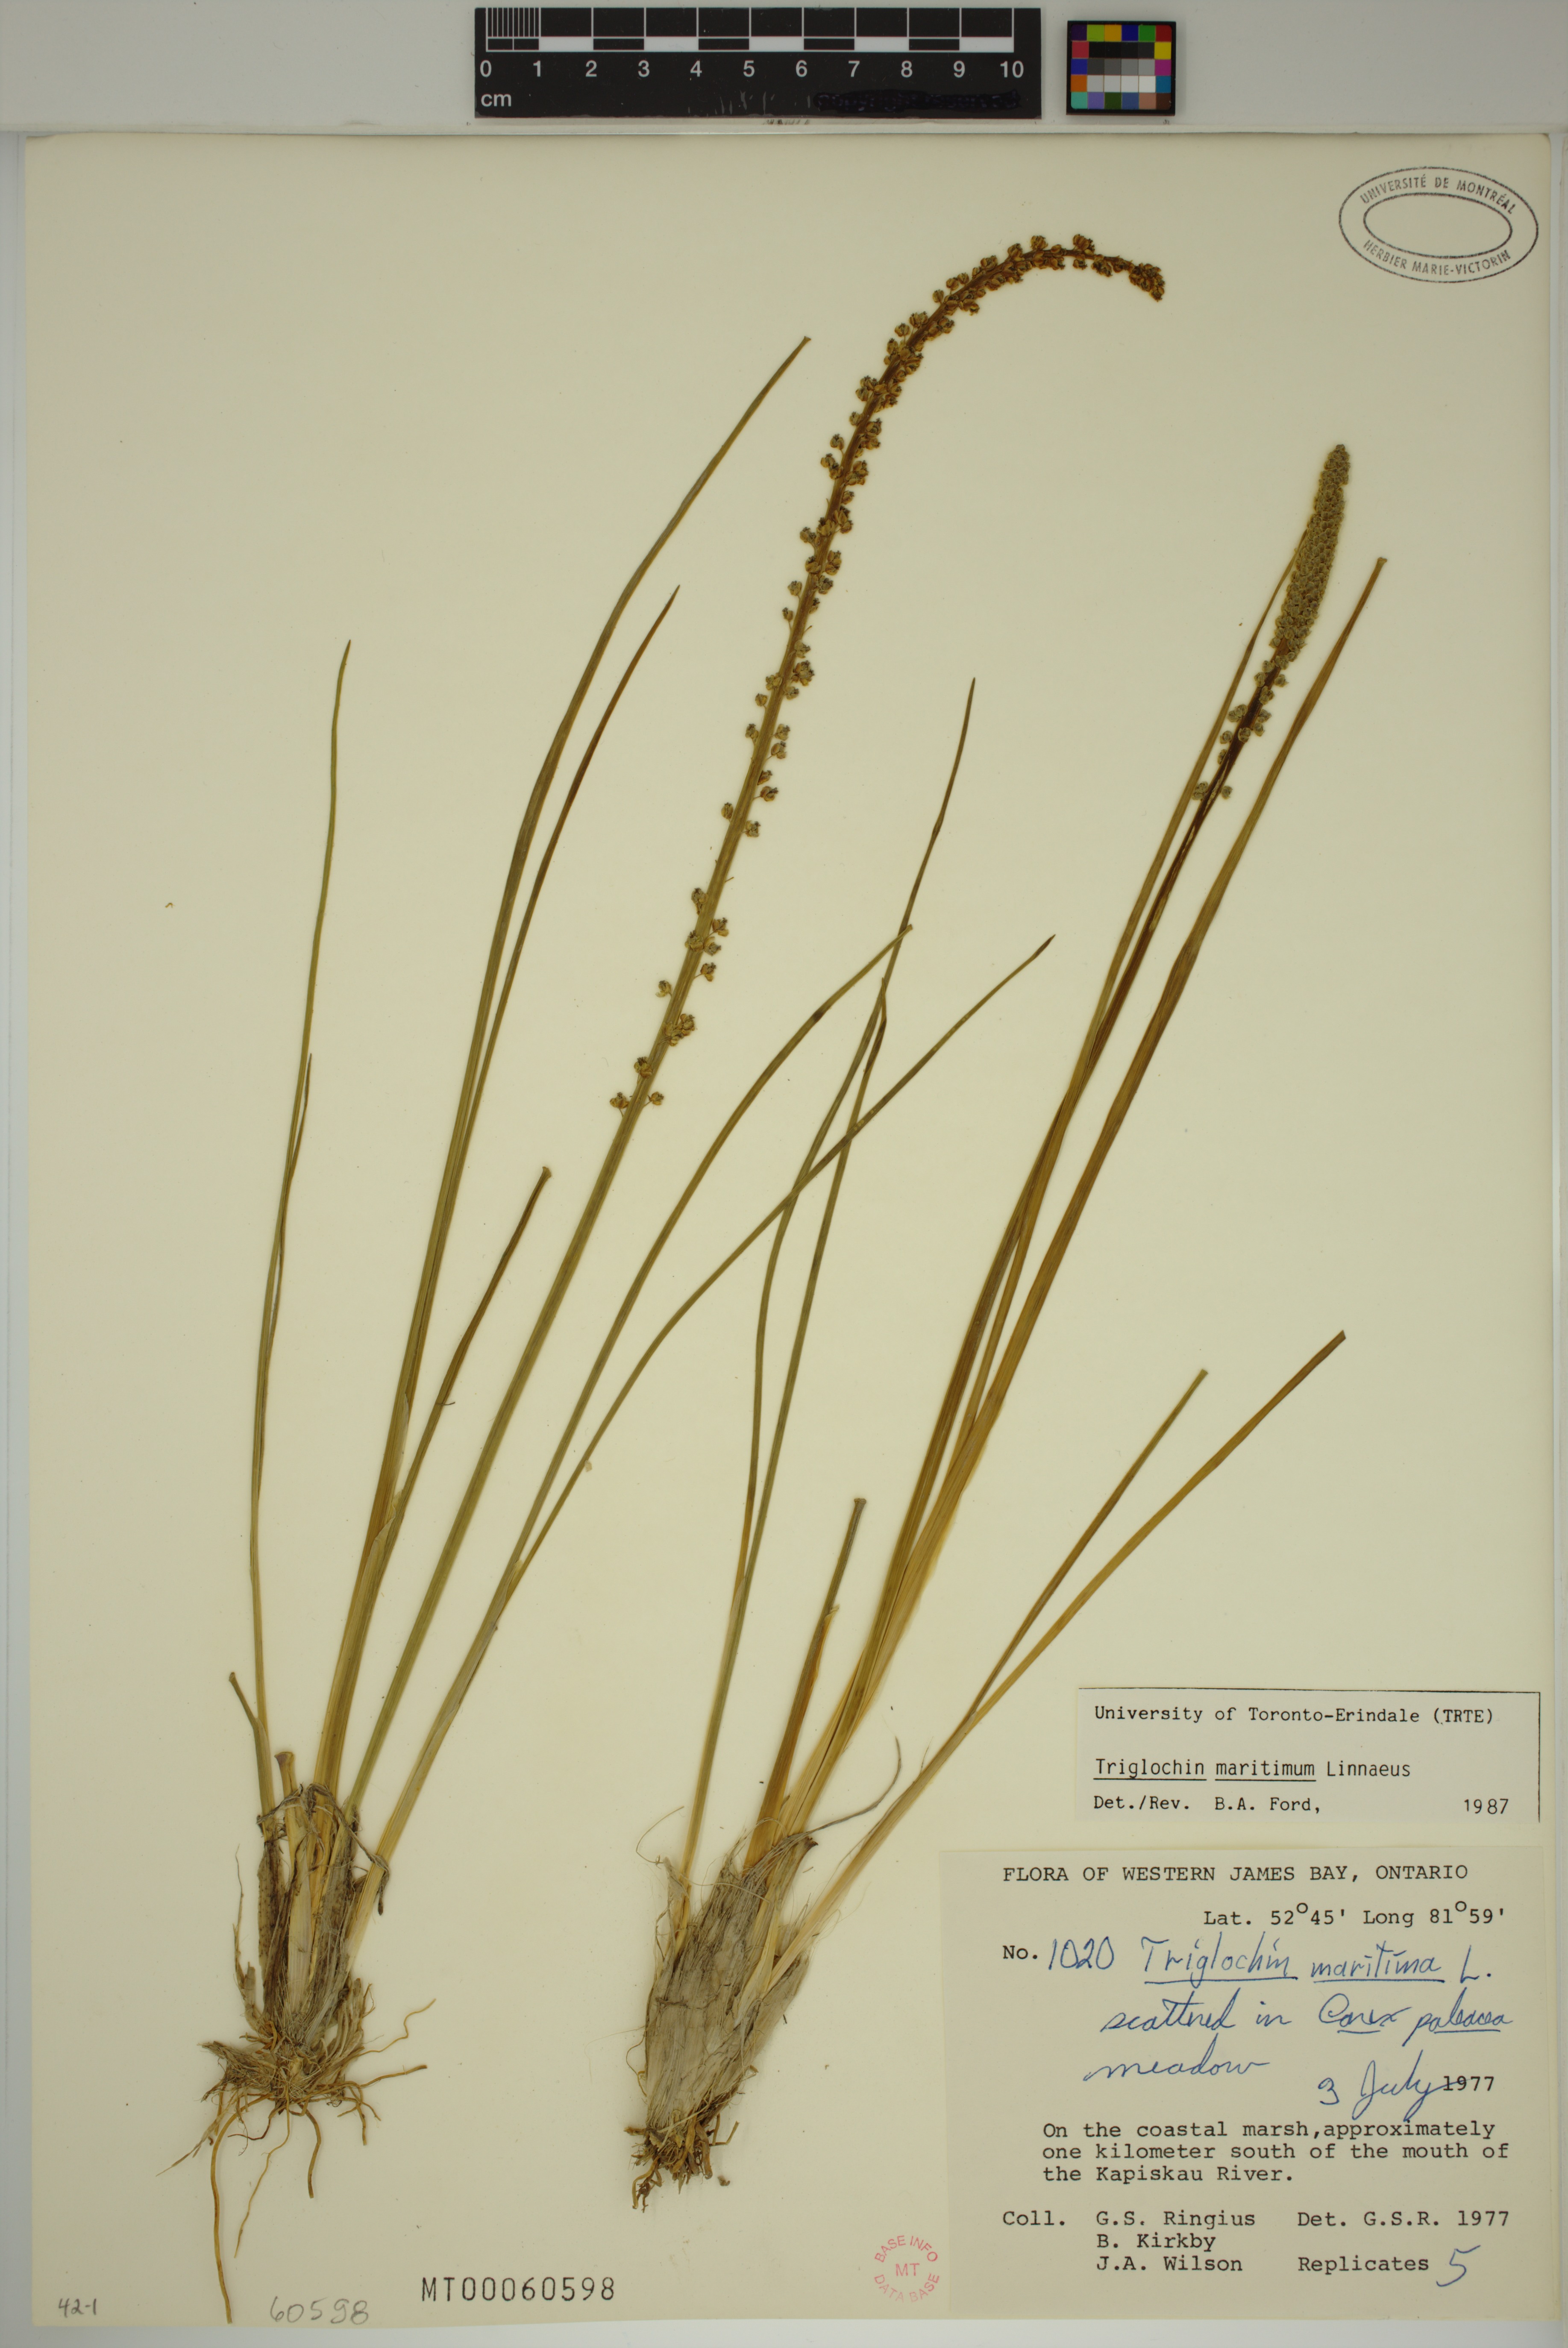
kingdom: Plantae
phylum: Tracheophyta
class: Liliopsida
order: Alismatales
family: Juncaginaceae
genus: Triglochin
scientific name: Triglochin maritima
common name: Sea arrowgrass
